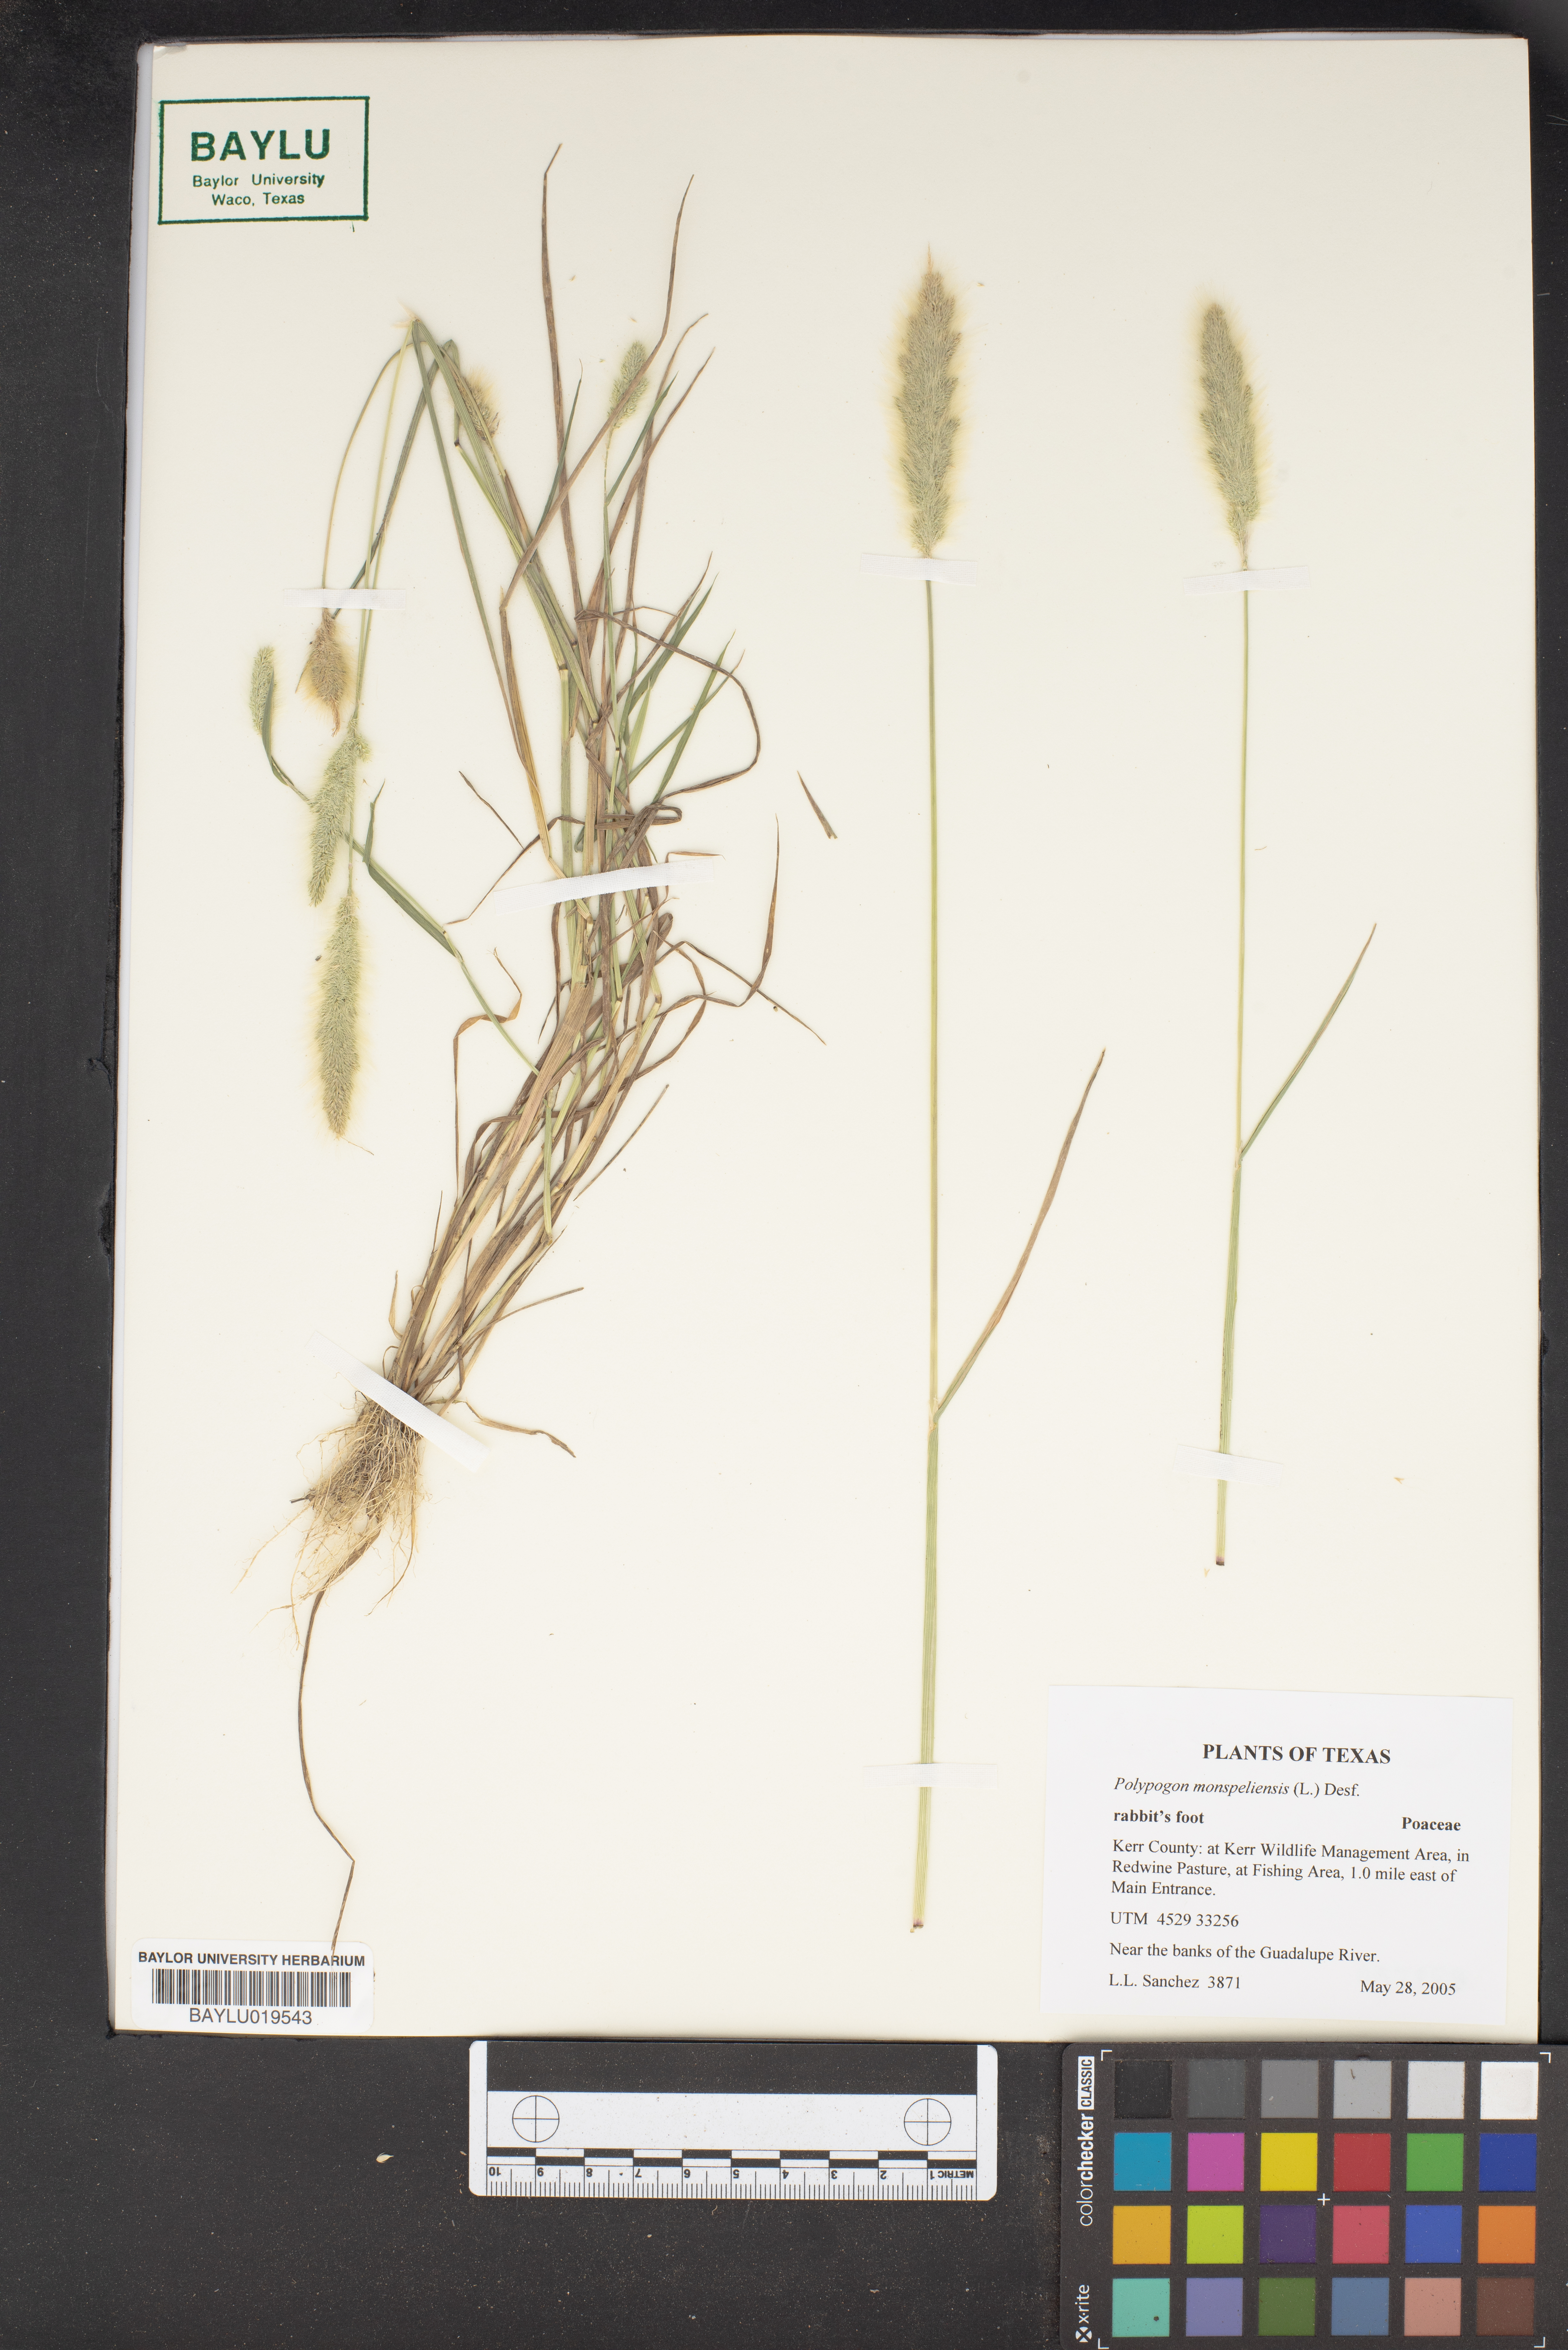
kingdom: Plantae
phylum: Tracheophyta
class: Liliopsida
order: Poales
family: Poaceae
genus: Polypogon
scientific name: Polypogon monspeliensis
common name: Annual rabbitsfoot grass
